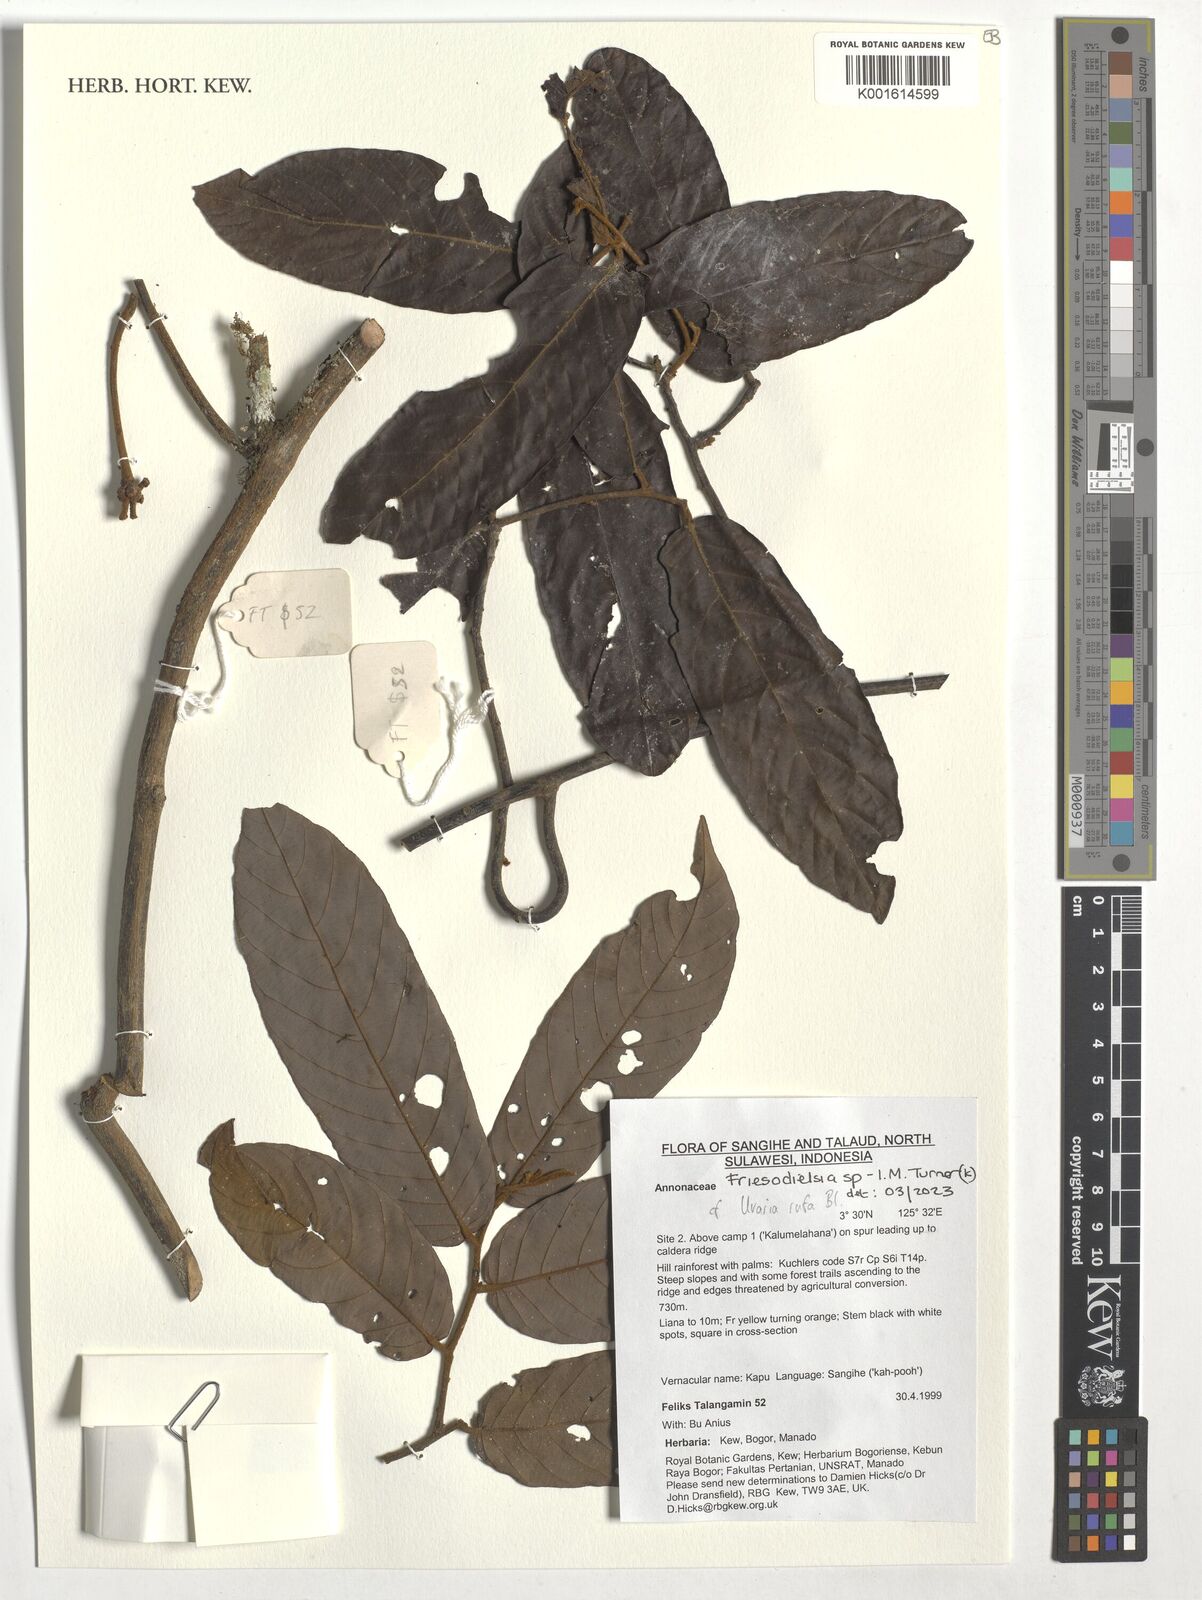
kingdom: Plantae
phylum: Tracheophyta
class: Magnoliopsida
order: Magnoliales
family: Annonaceae
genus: Friesodielsia
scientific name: Friesodielsia
